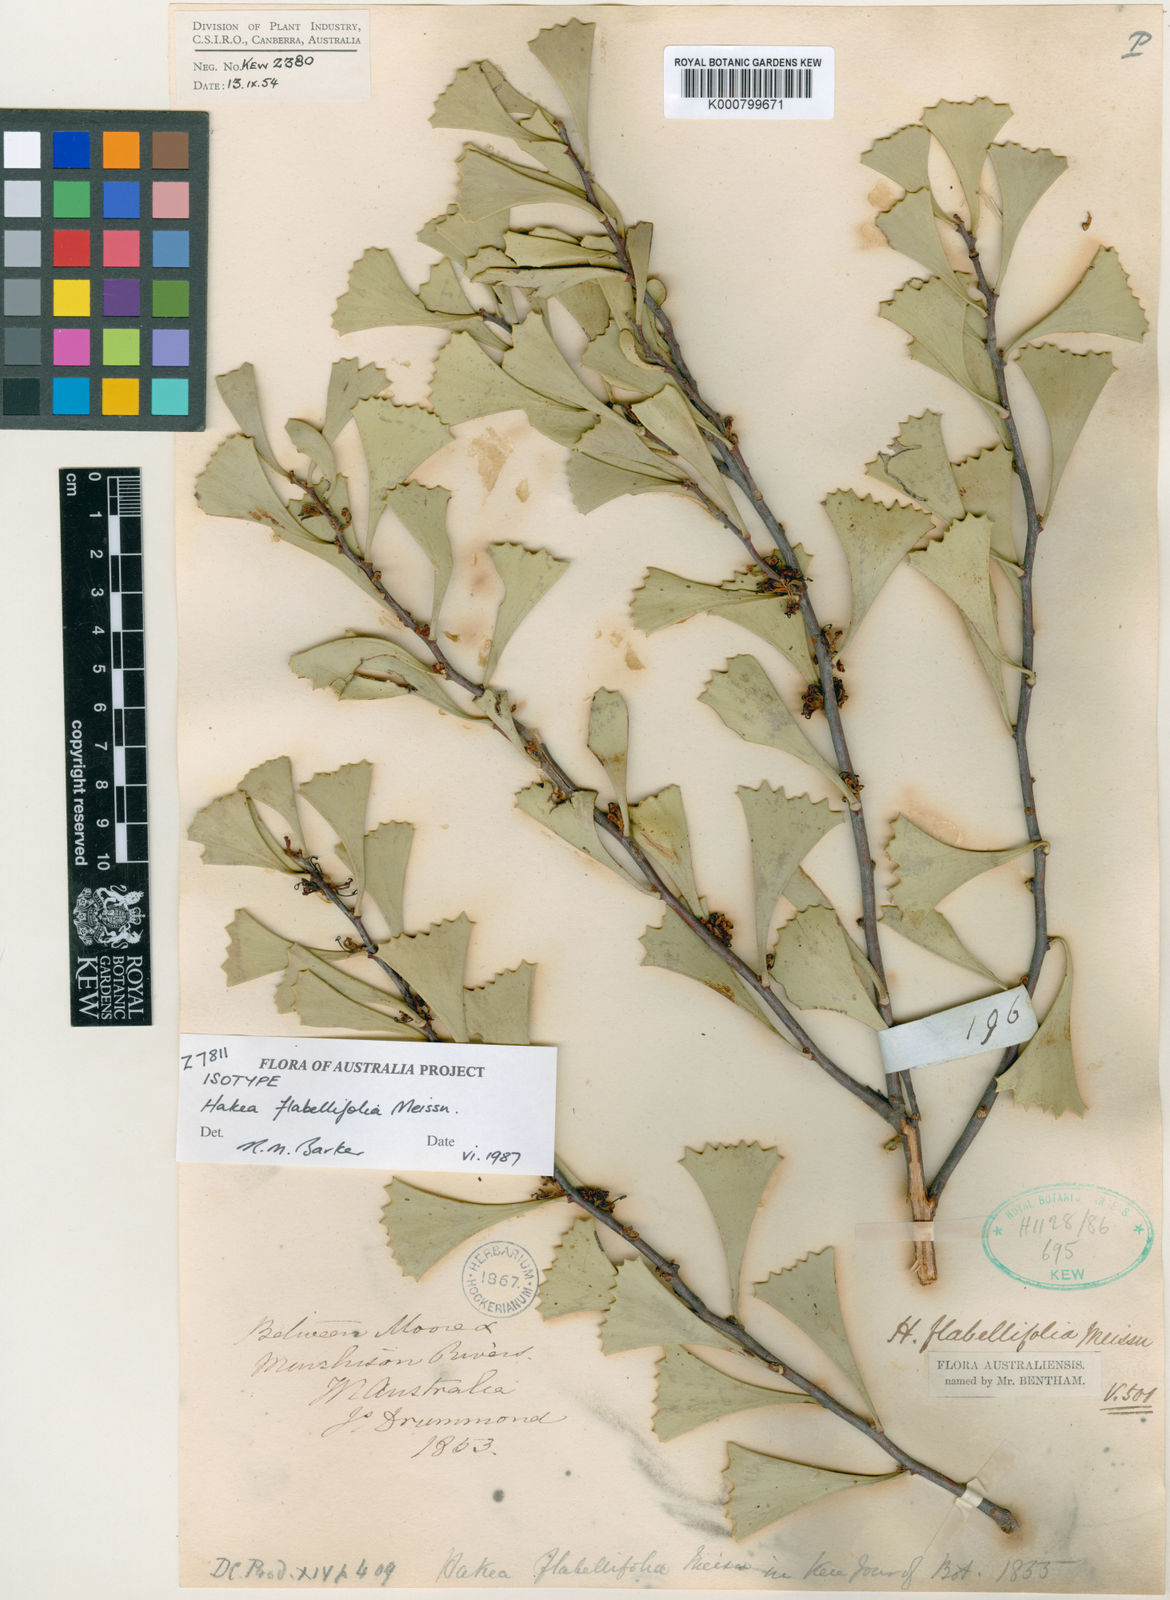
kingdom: Plantae
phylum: Tracheophyta
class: Magnoliopsida
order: Proteales
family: Proteaceae
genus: Hakea
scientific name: Hakea flabellifolia
